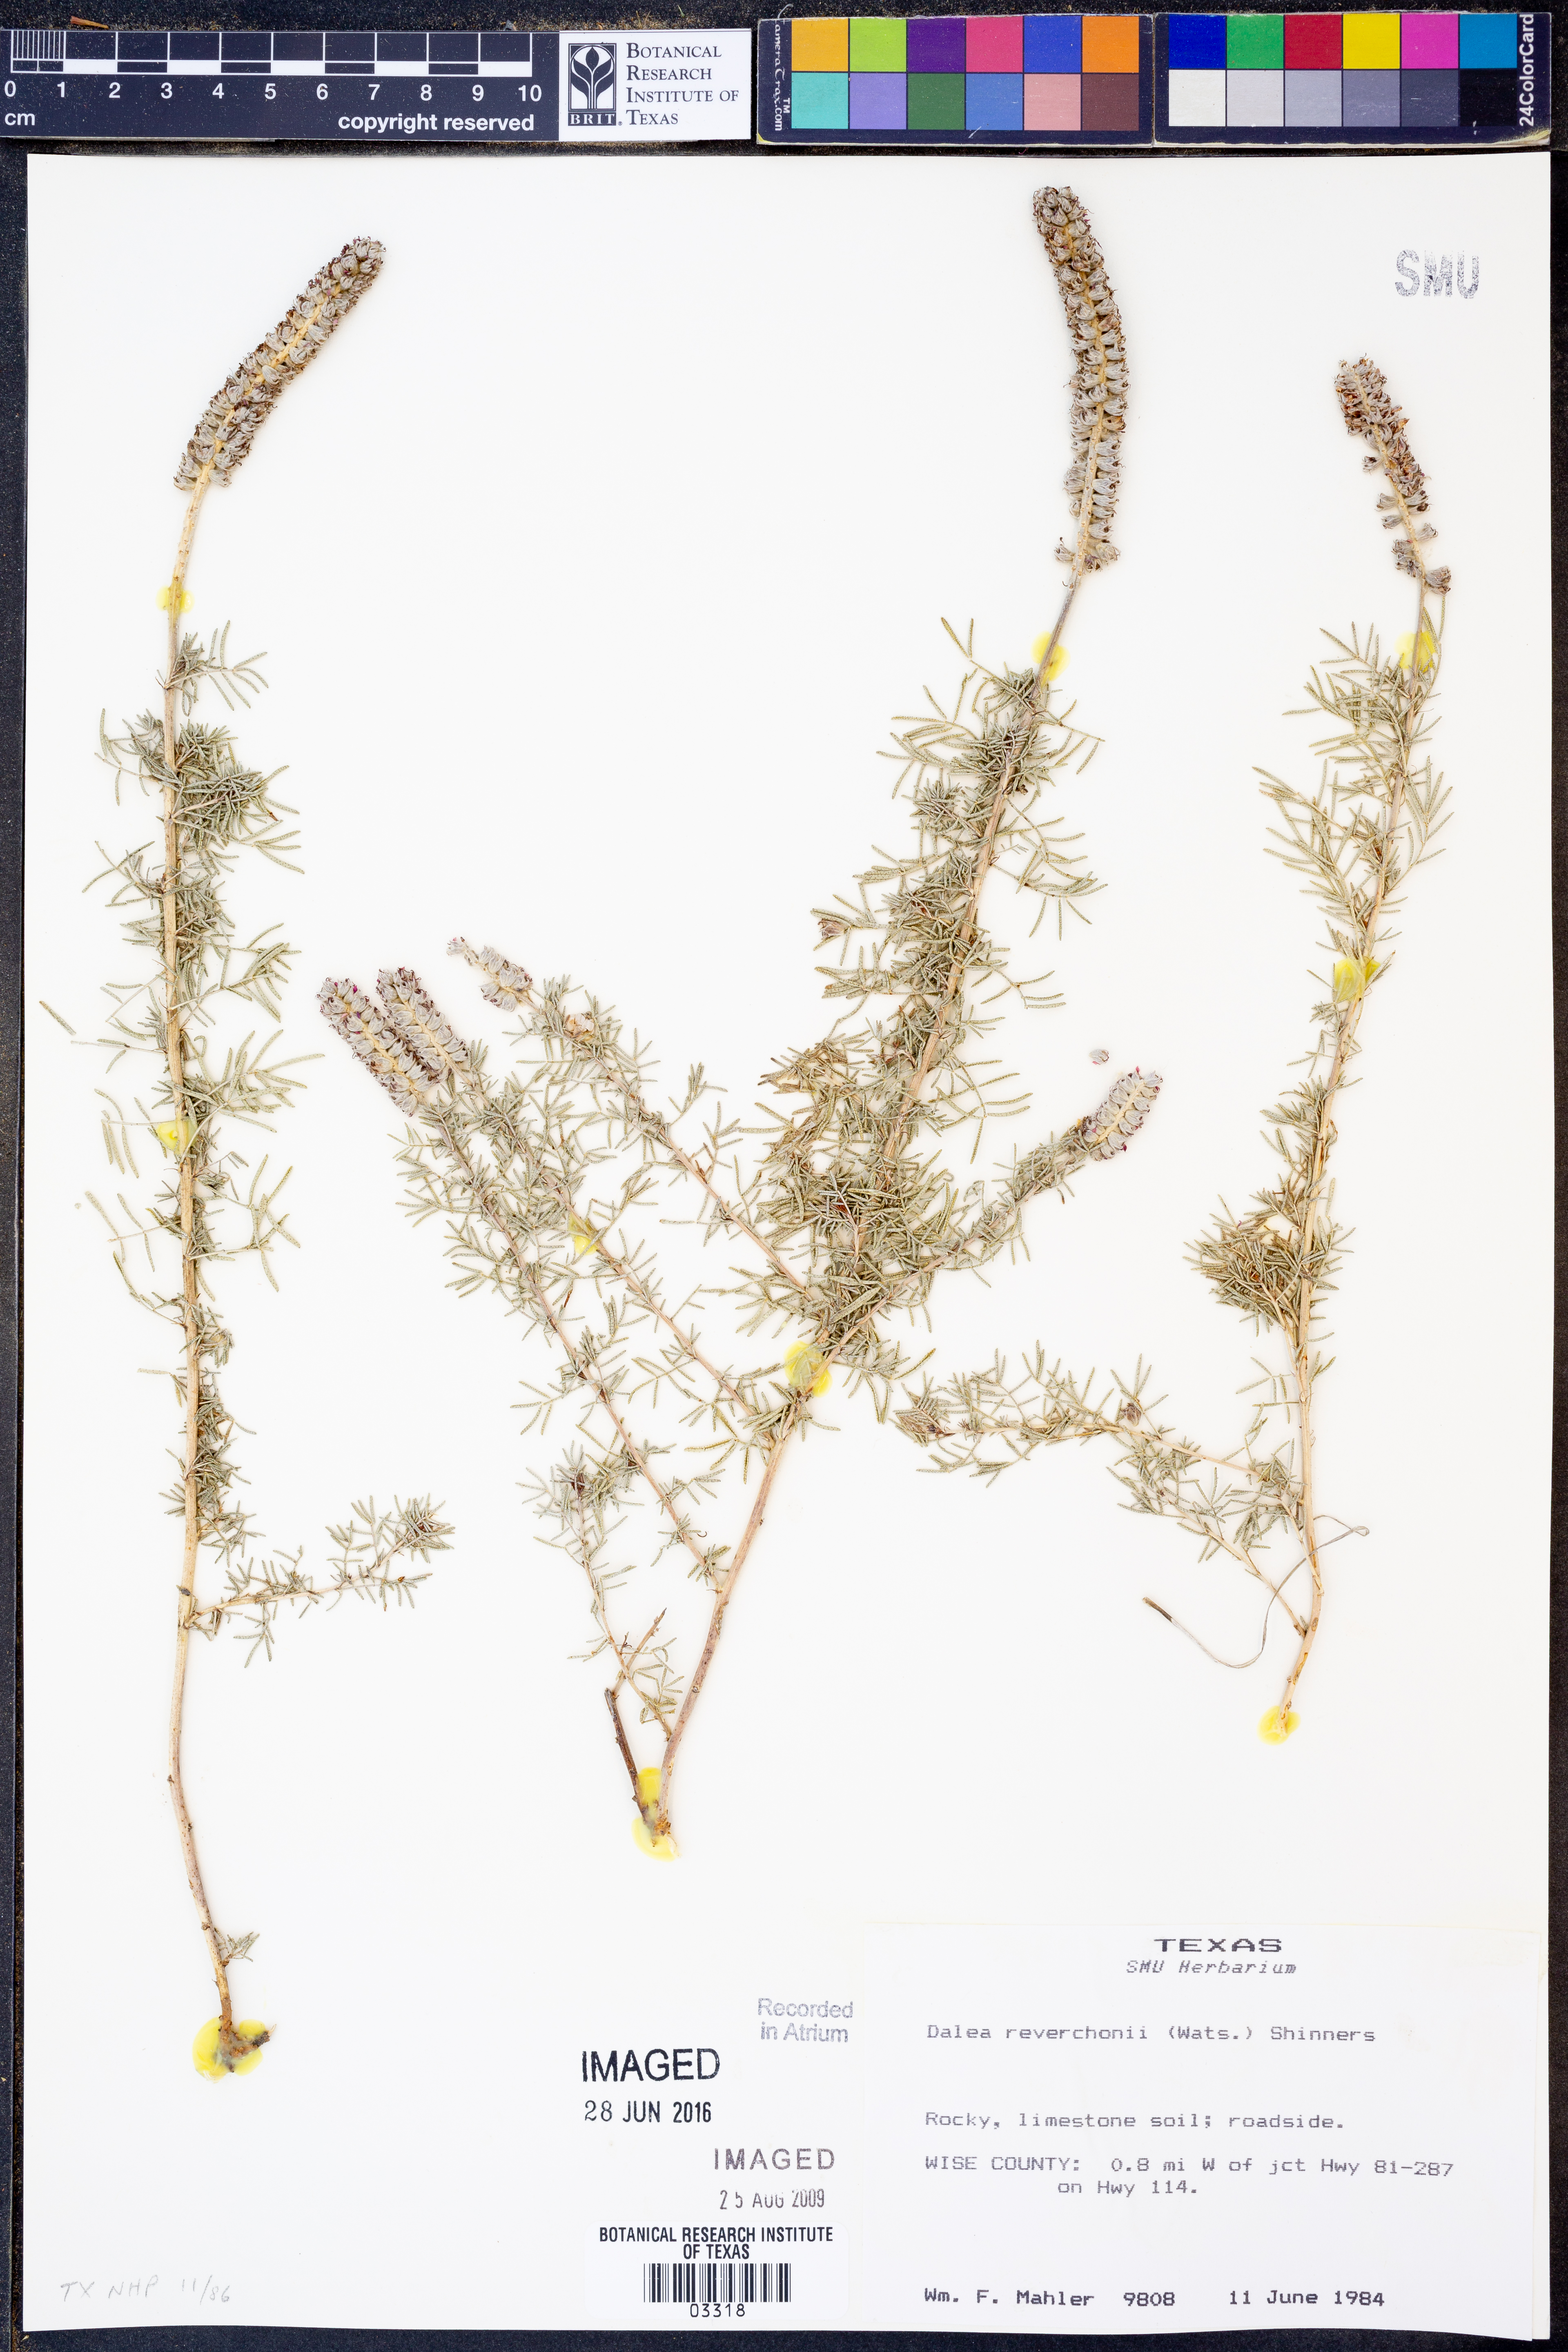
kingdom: Plantae
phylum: Tracheophyta
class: Magnoliopsida
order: Fabales
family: Fabaceae
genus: Dalea
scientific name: Dalea reverchonii
